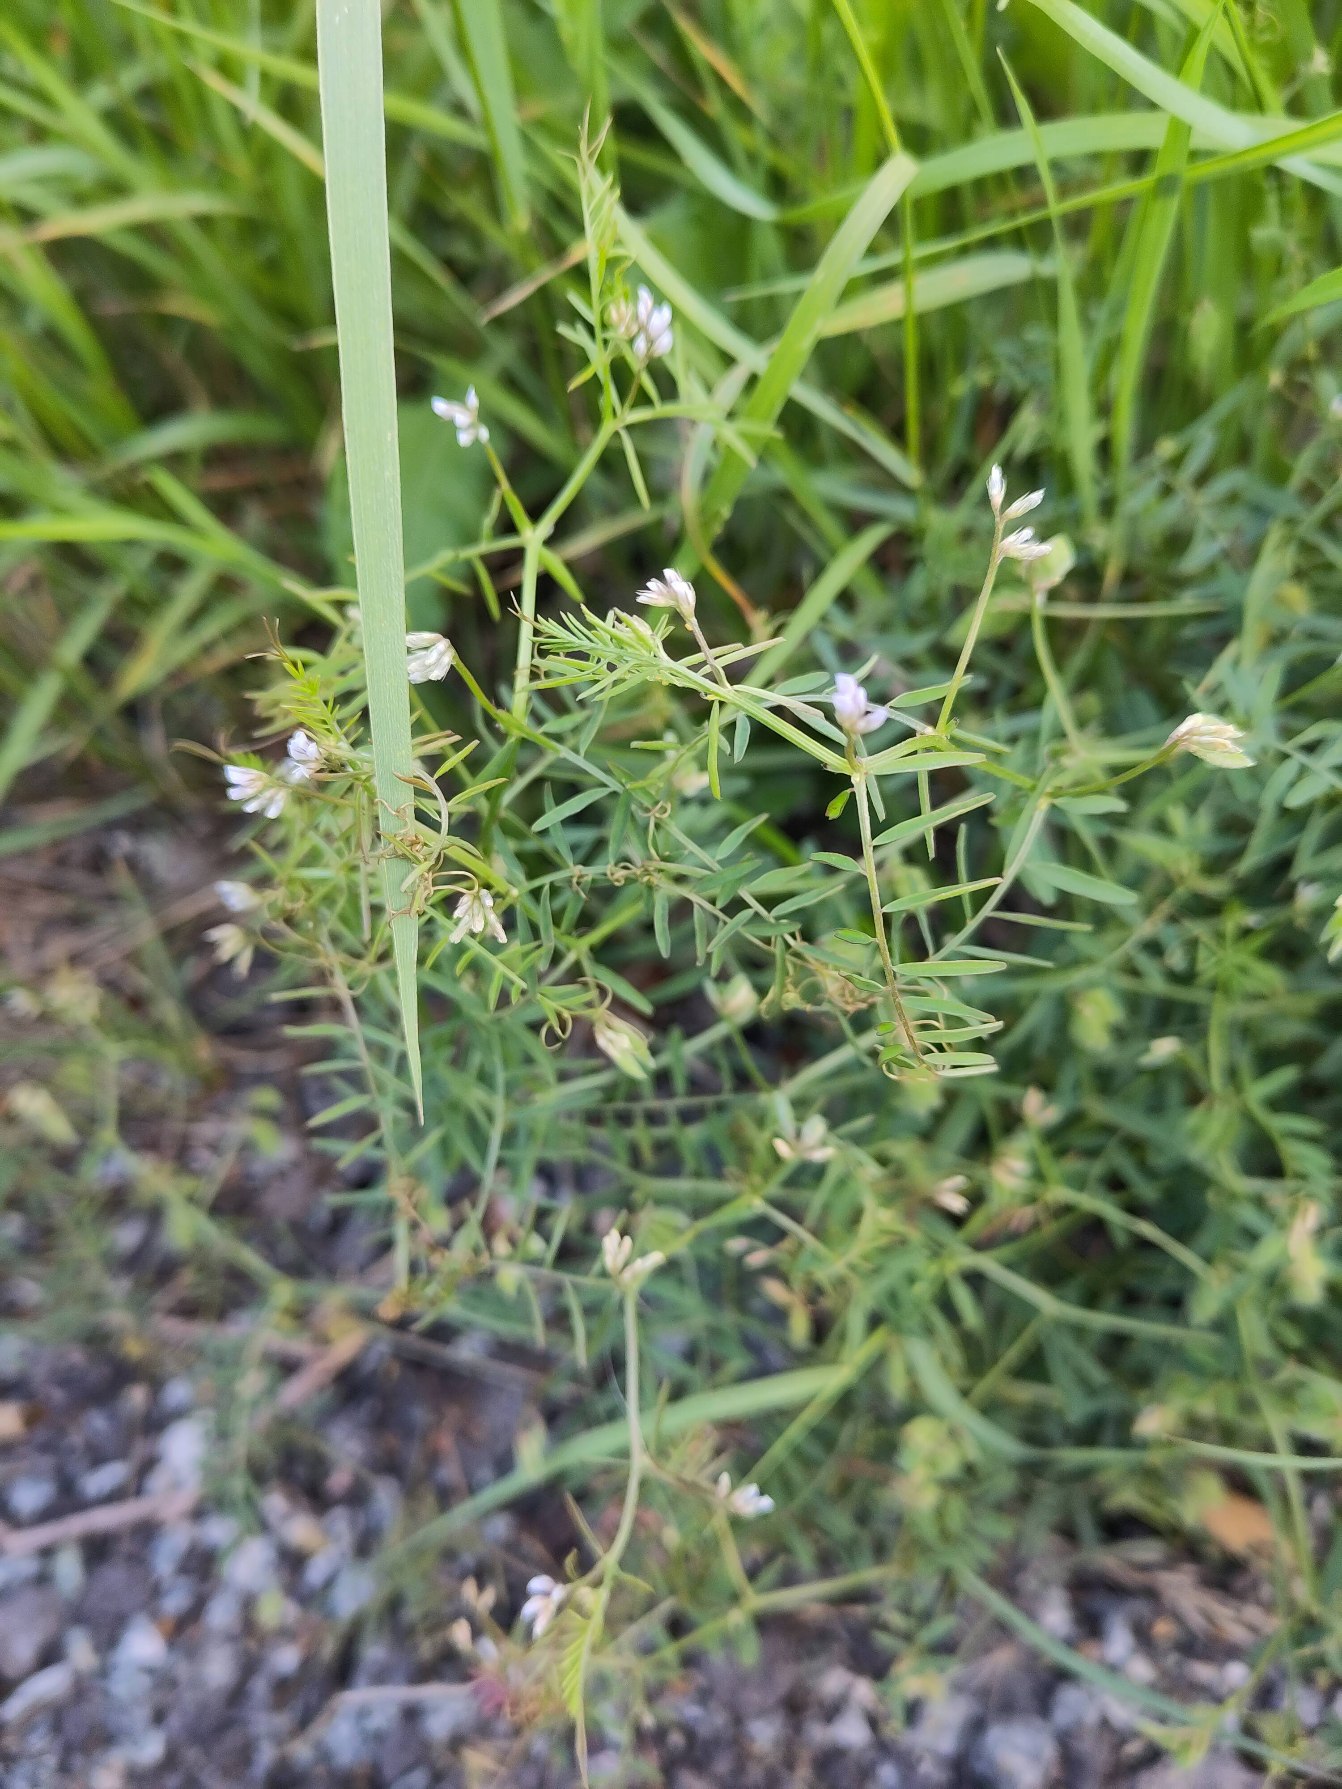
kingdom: Plantae
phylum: Tracheophyta
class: Magnoliopsida
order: Fabales
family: Fabaceae
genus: Vicia
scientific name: Vicia hirsuta
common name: Tofrøet vikke
